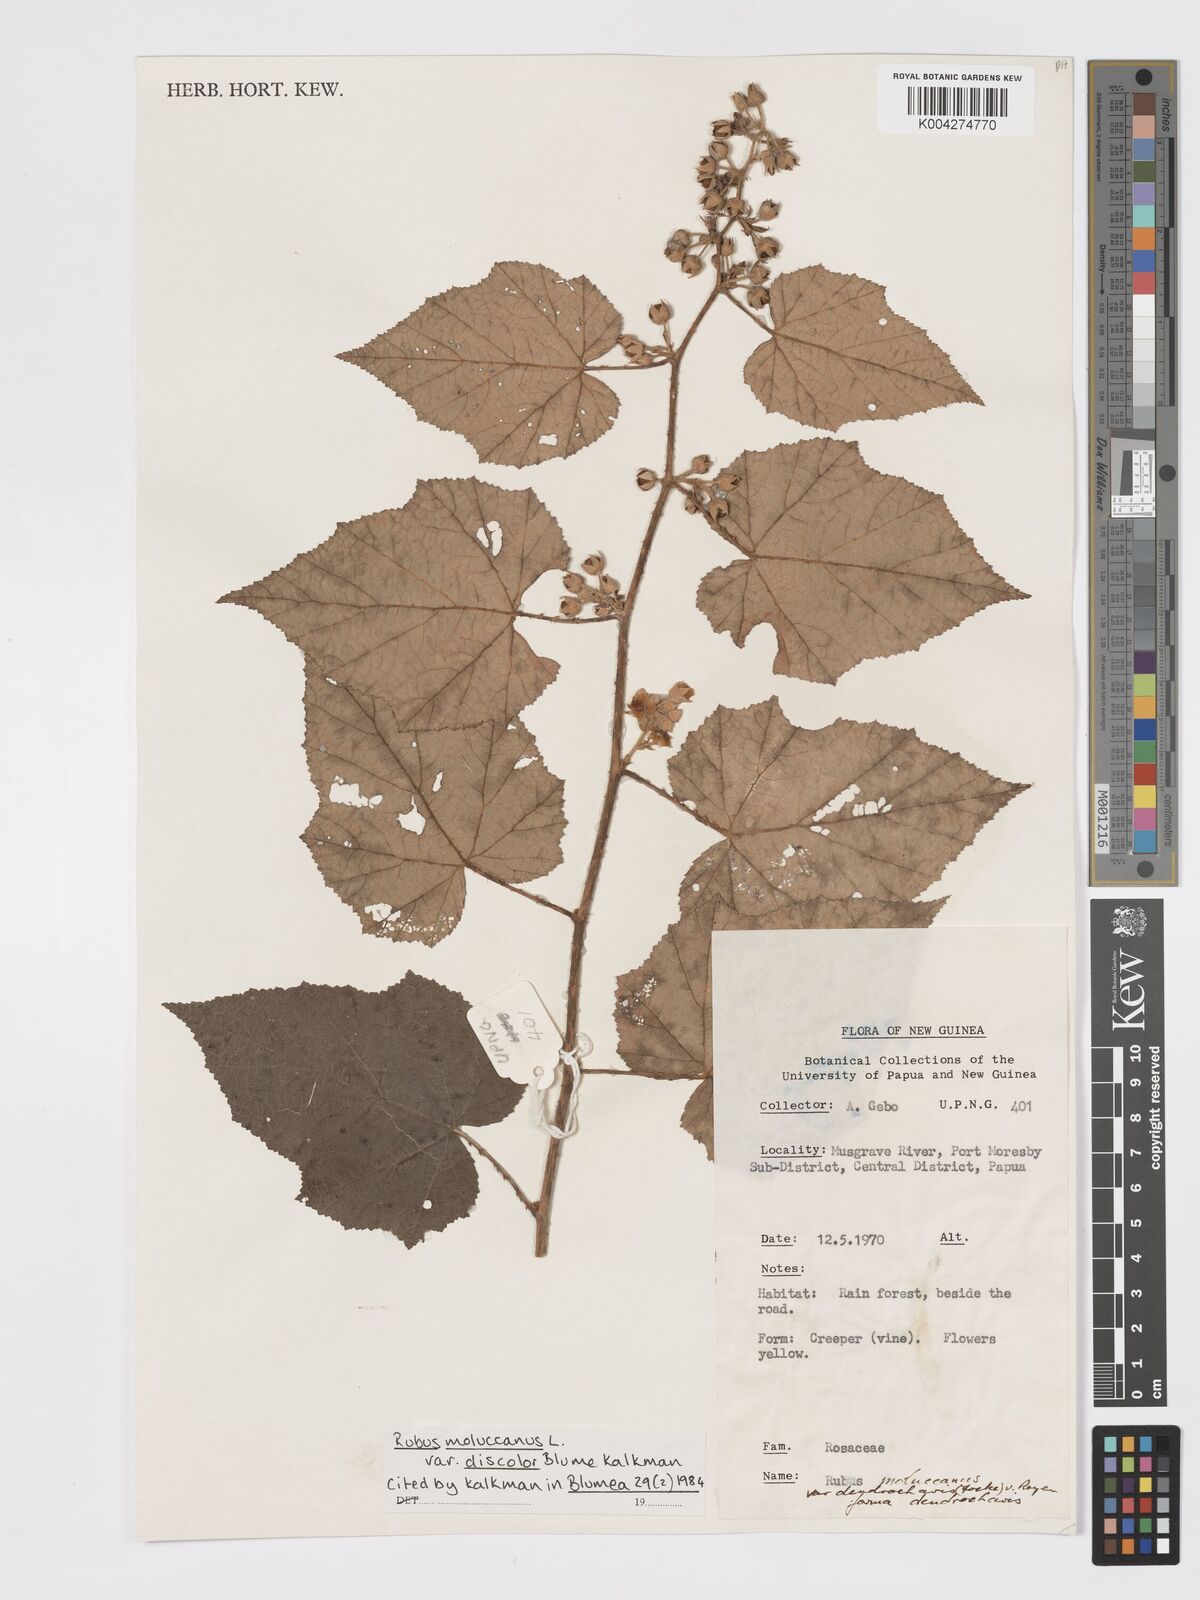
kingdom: Plantae
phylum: Tracheophyta
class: Magnoliopsida
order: Rosales
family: Rosaceae
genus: Rubus
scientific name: Rubus moluccanus
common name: Wild raspberry
